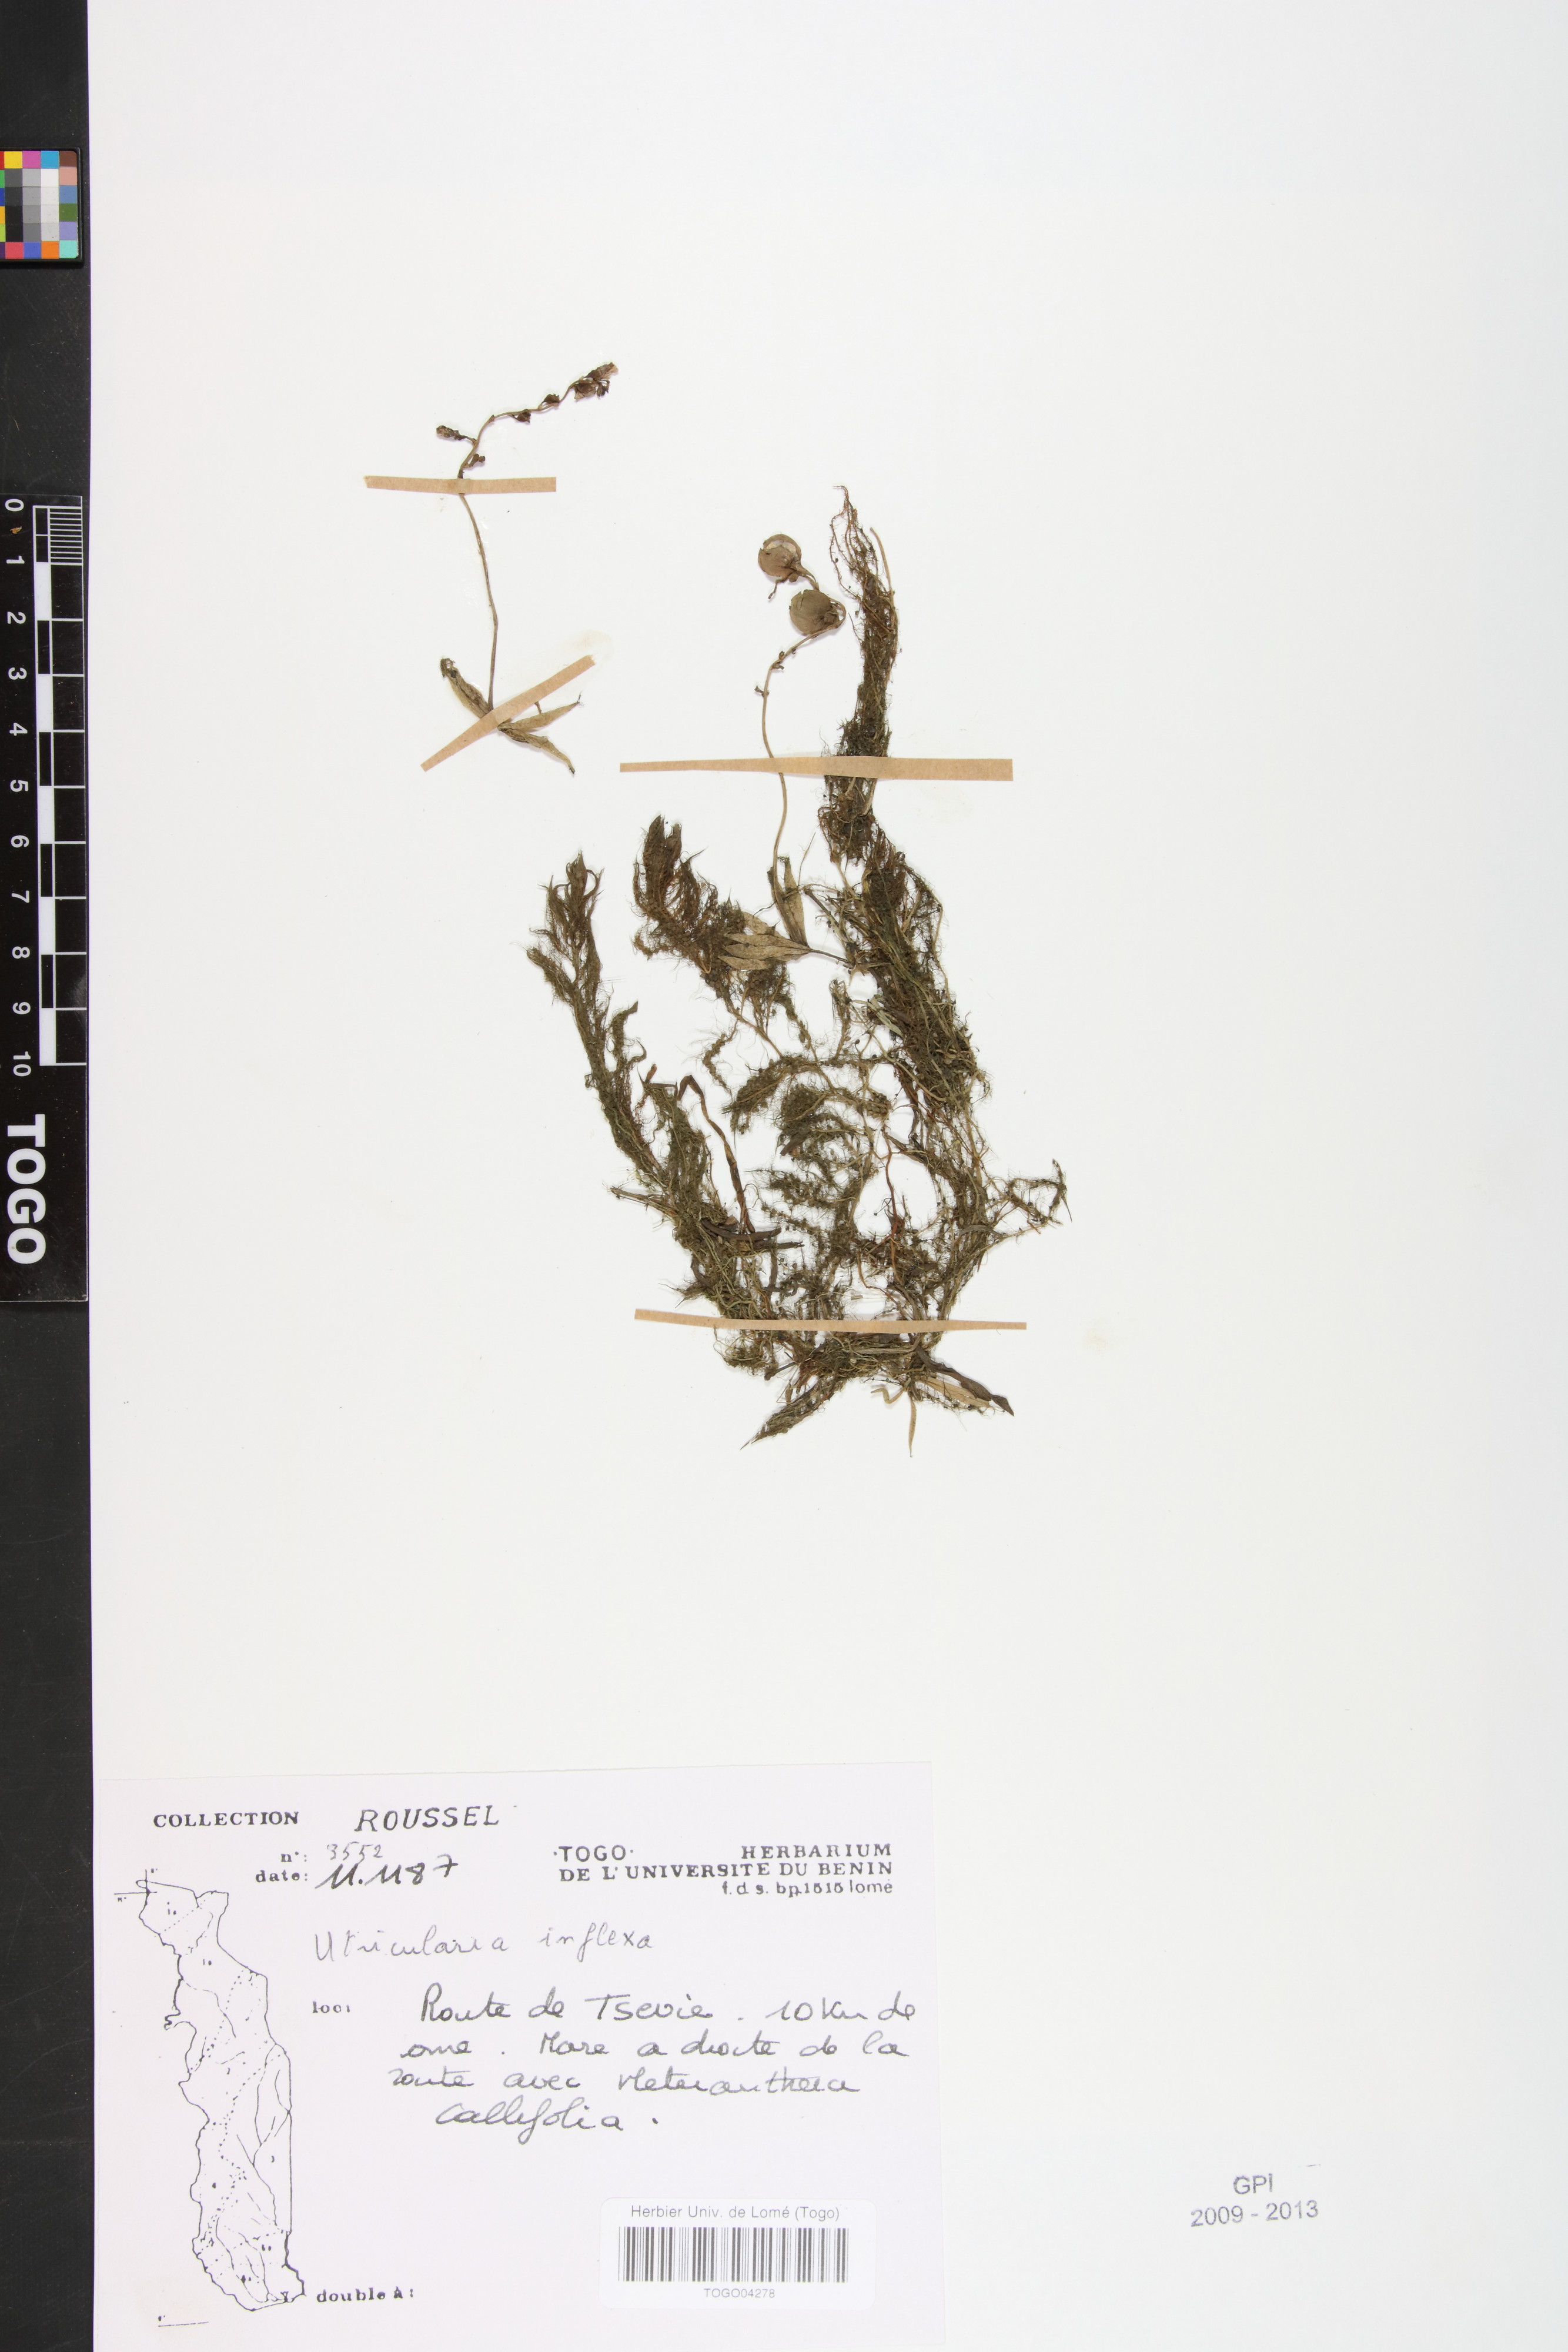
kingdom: Plantae
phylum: Tracheophyta
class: Magnoliopsida
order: Lamiales
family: Lentibulariaceae
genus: Utricularia
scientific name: Utricularia inflexa
